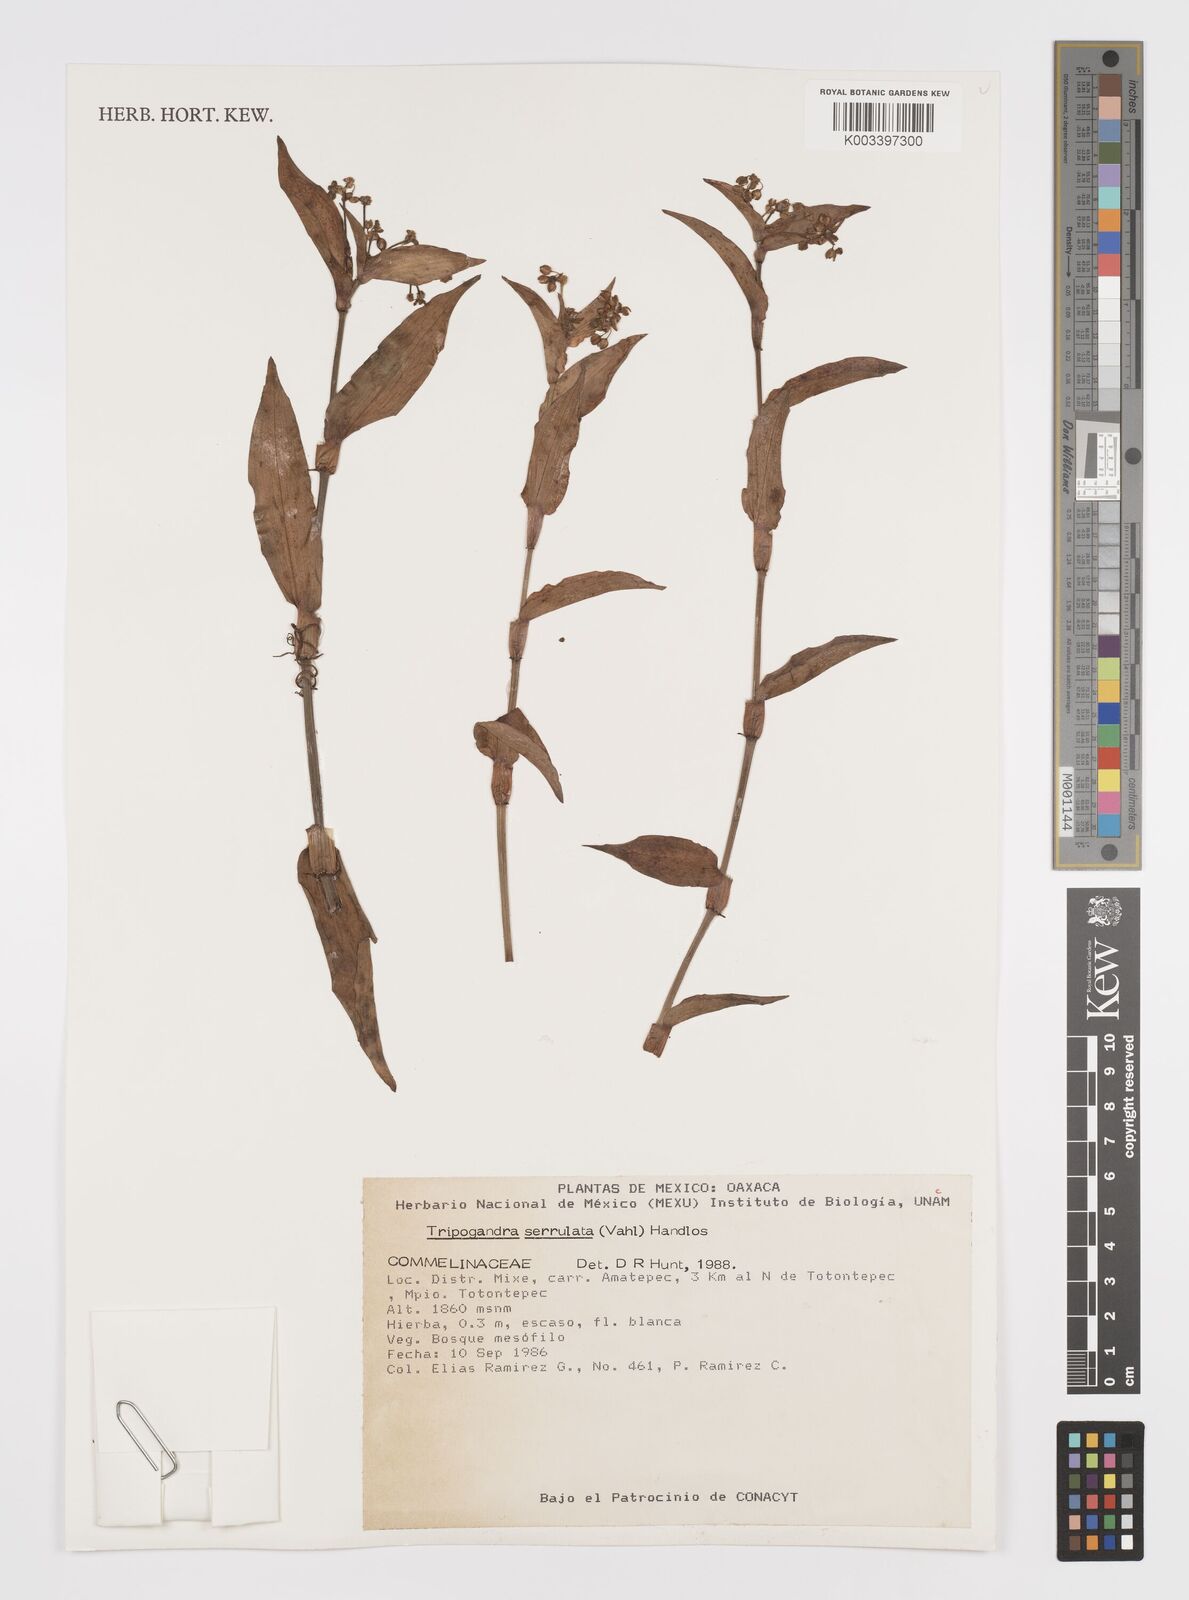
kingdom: Plantae
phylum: Tracheophyta
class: Liliopsida
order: Commelinales
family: Commelinaceae
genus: Callisia
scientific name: Callisia serrulata
